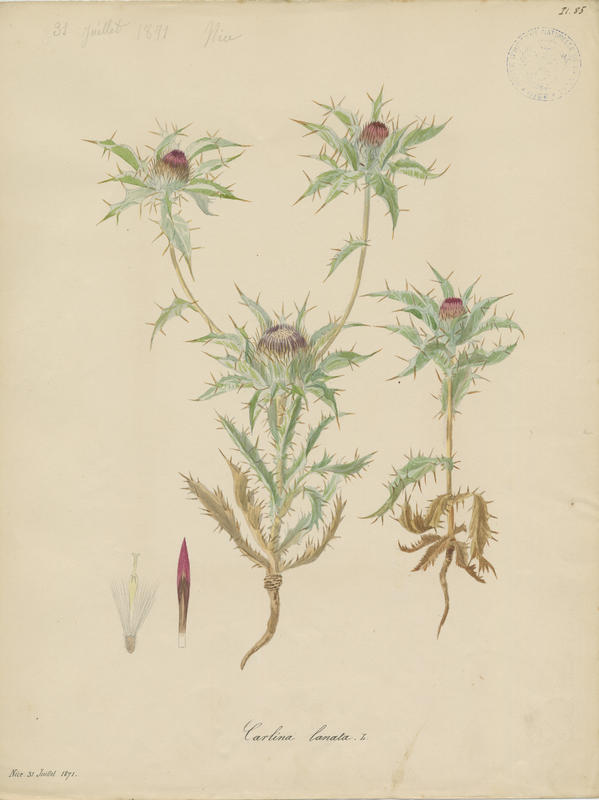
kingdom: Plantae
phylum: Tracheophyta
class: Magnoliopsida
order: Asterales
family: Asteraceae
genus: Carlina
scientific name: Carlina lanata
